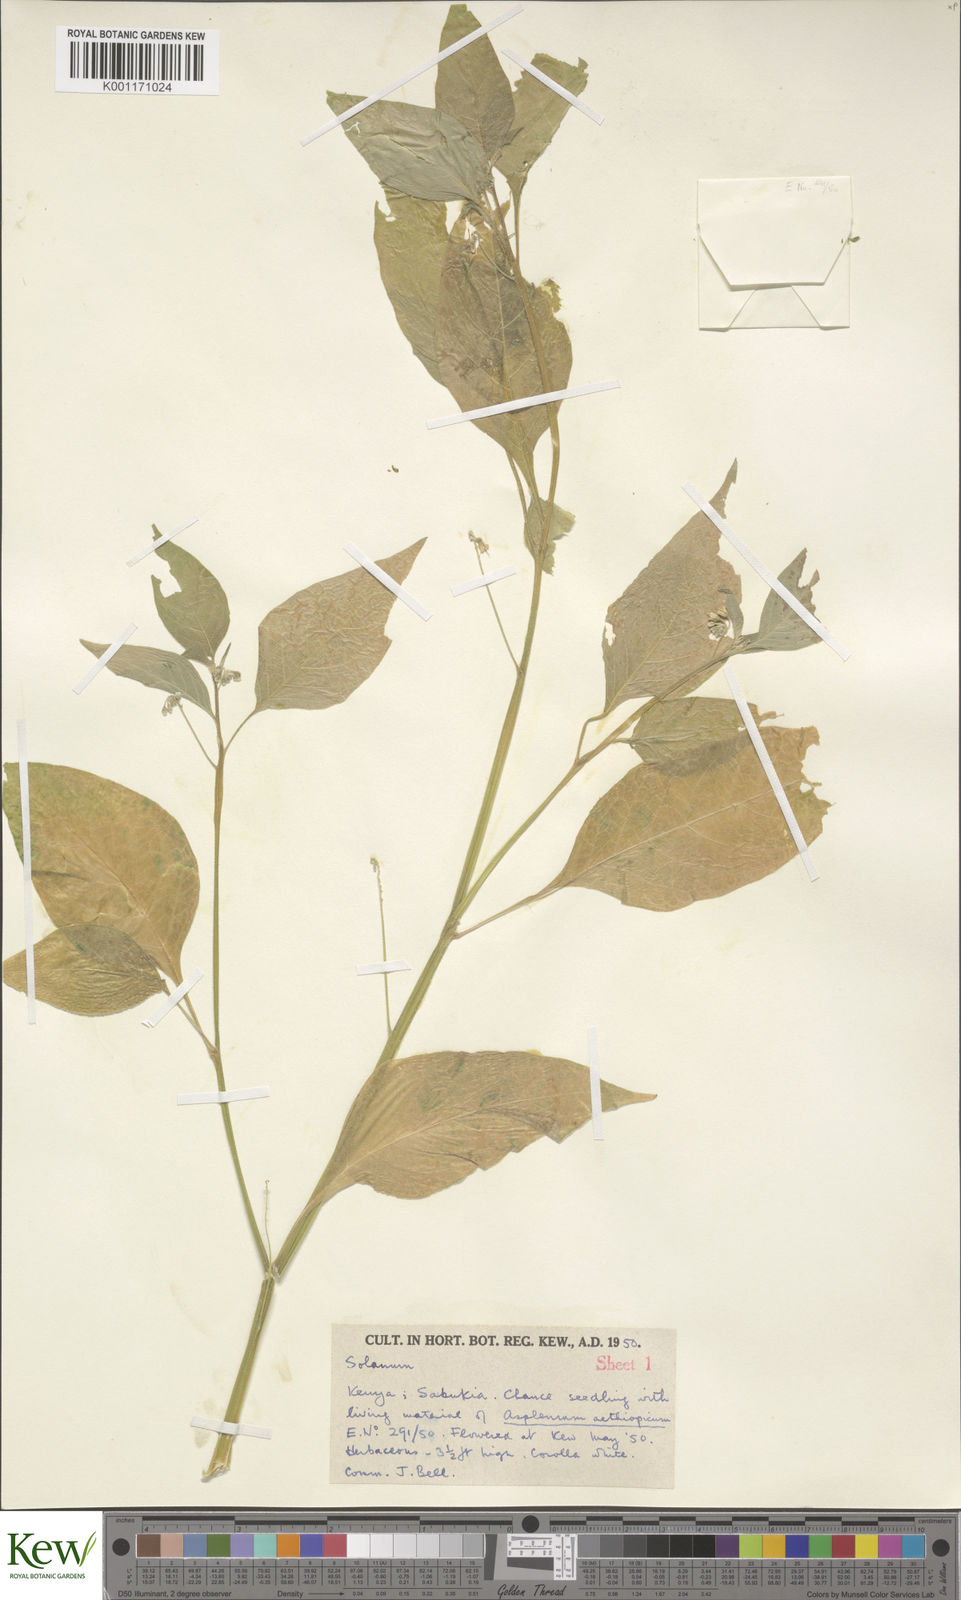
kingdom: Plantae
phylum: Tracheophyta
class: Magnoliopsida
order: Solanales
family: Solanaceae
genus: Solanum
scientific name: Solanum tarderemotum
